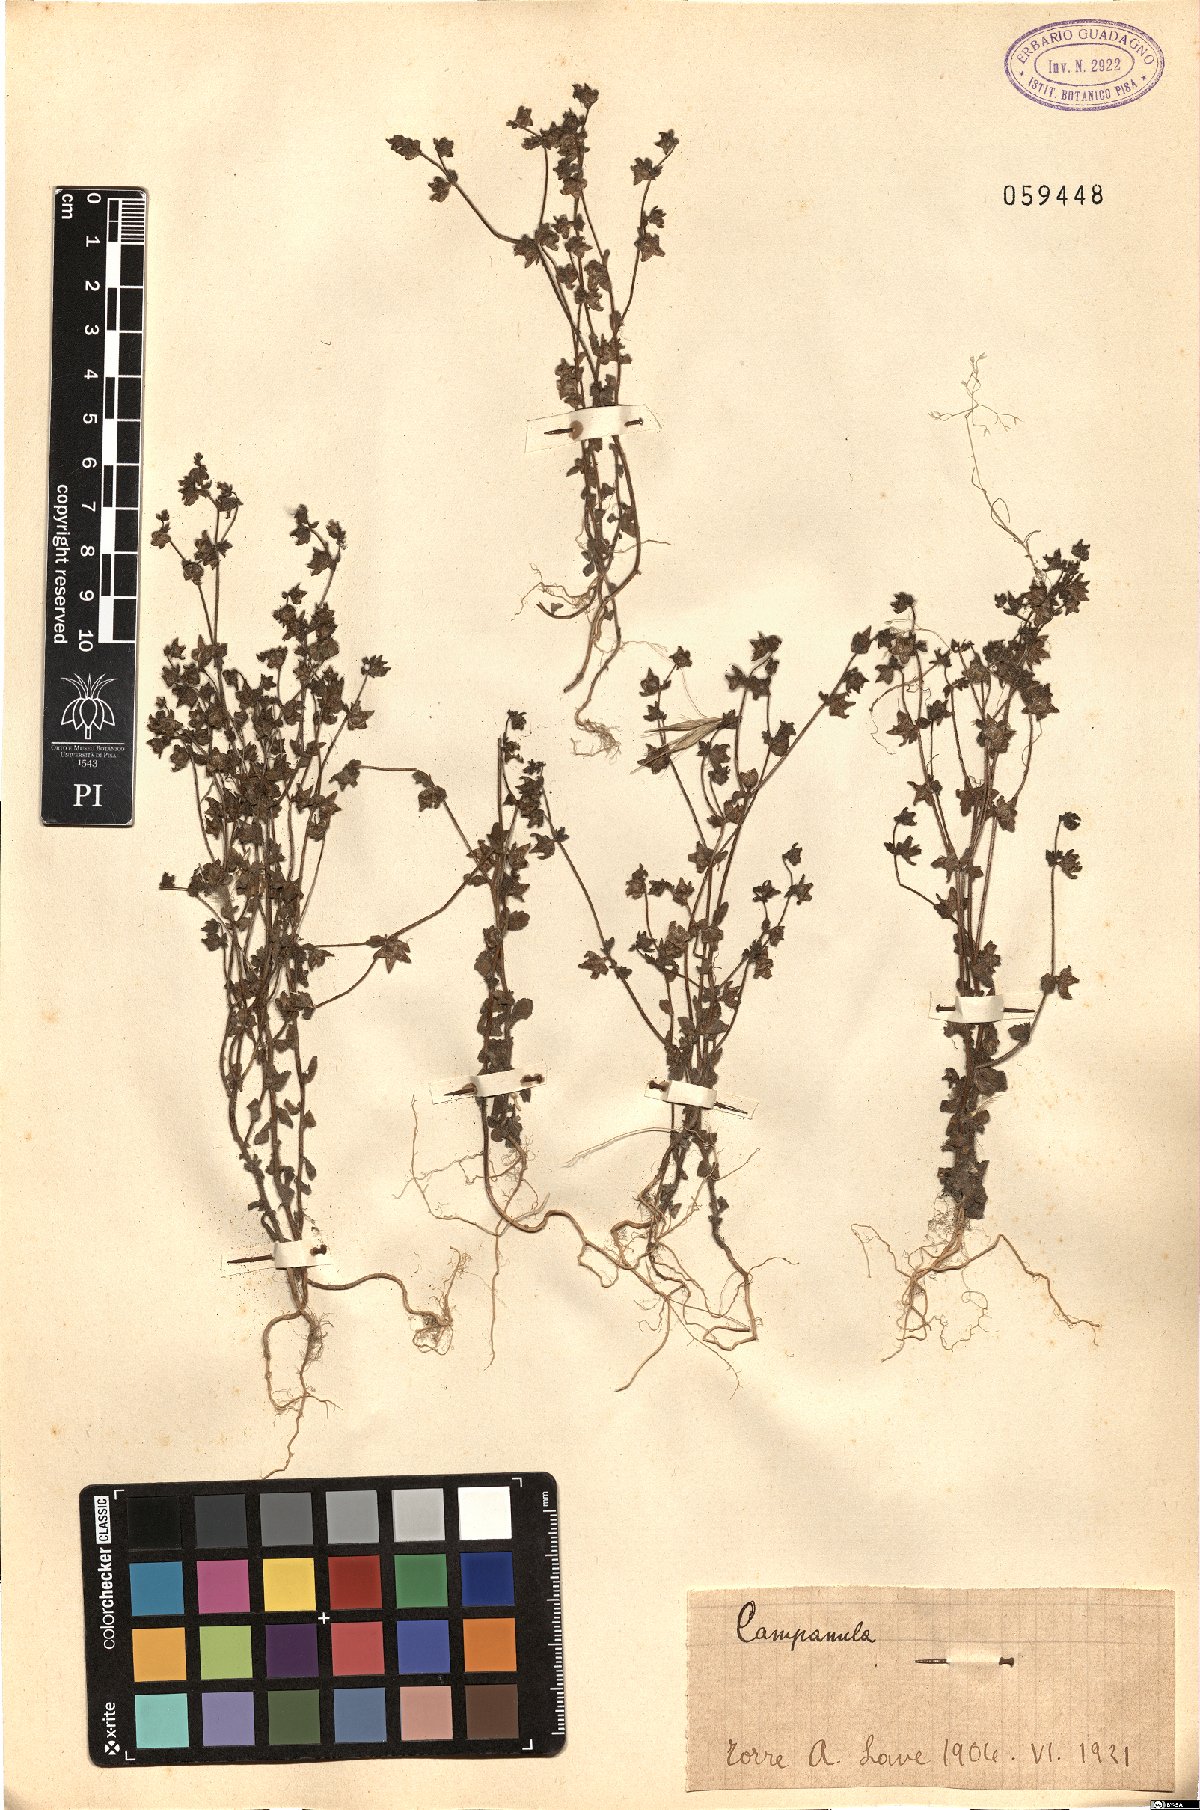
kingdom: Plantae
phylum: Tracheophyta
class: Magnoliopsida
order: Asterales
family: Campanulaceae
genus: Campanula
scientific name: Campanula
